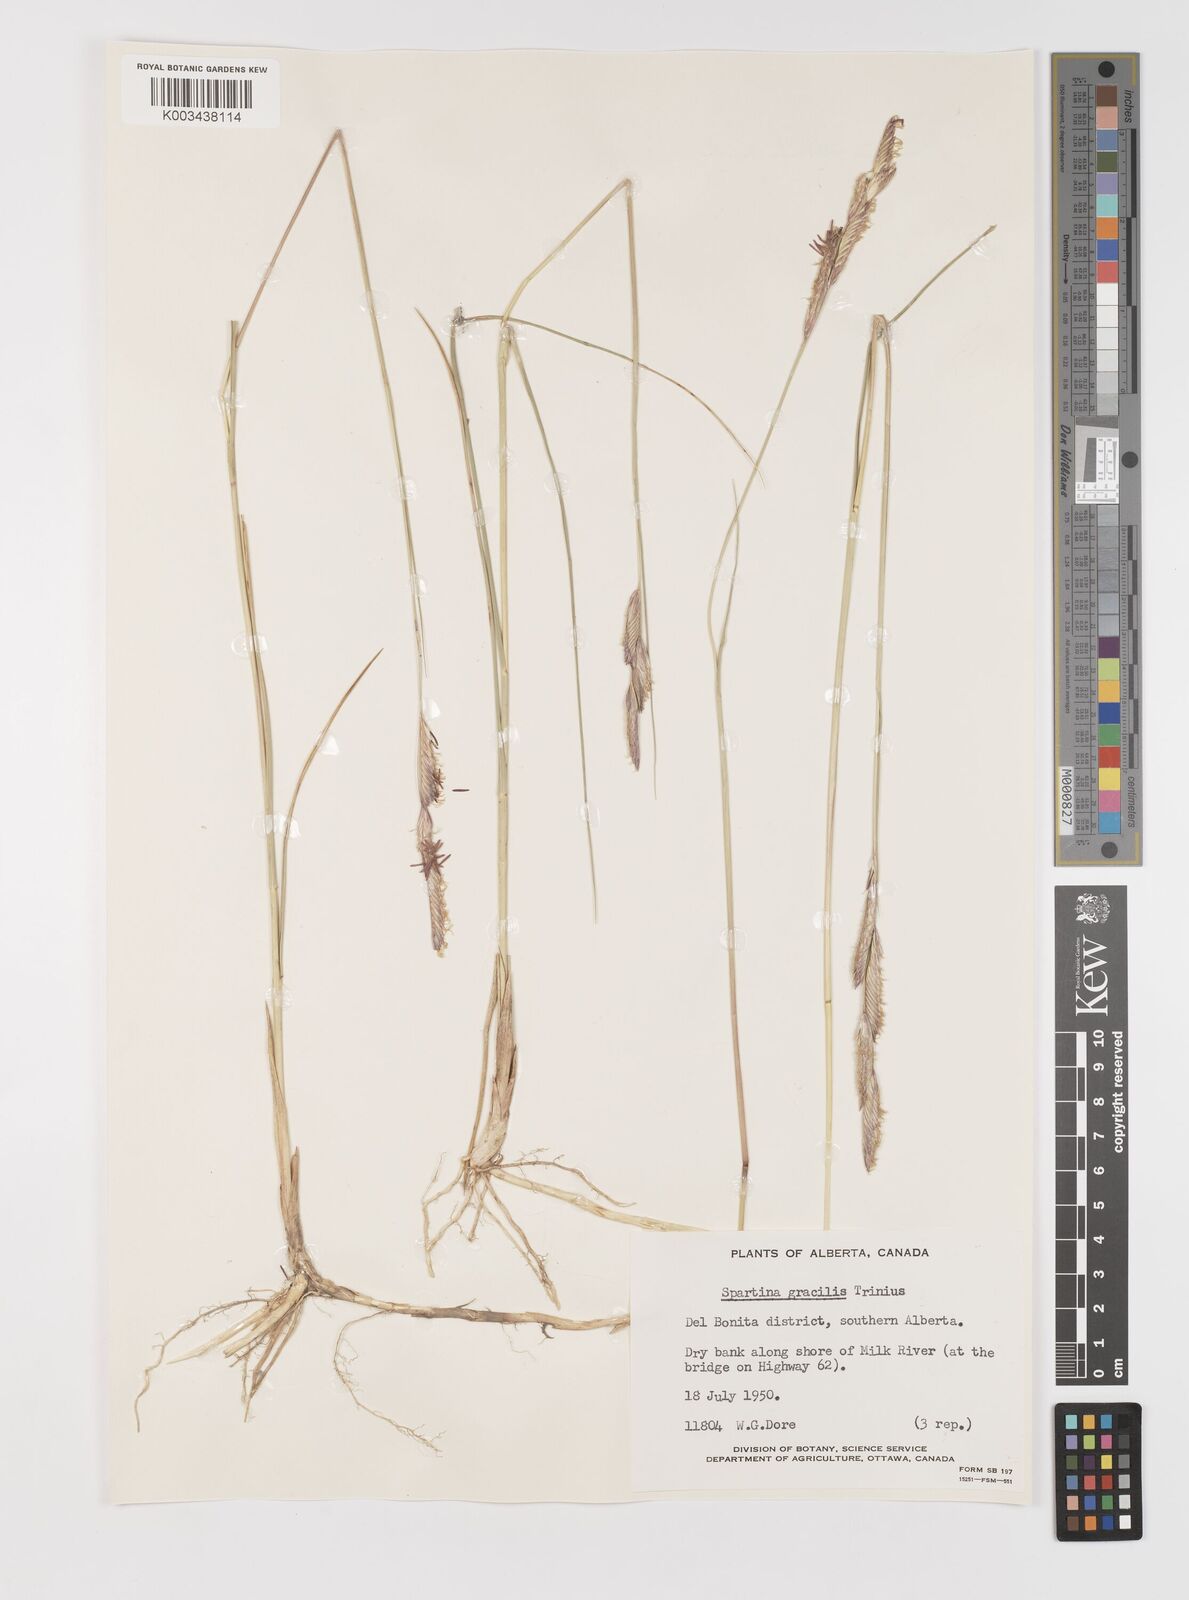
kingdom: Plantae
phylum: Tracheophyta
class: Liliopsida
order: Poales
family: Poaceae
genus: Sporobolus
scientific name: Sporobolus hookerianus
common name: Alkali cordgrass
